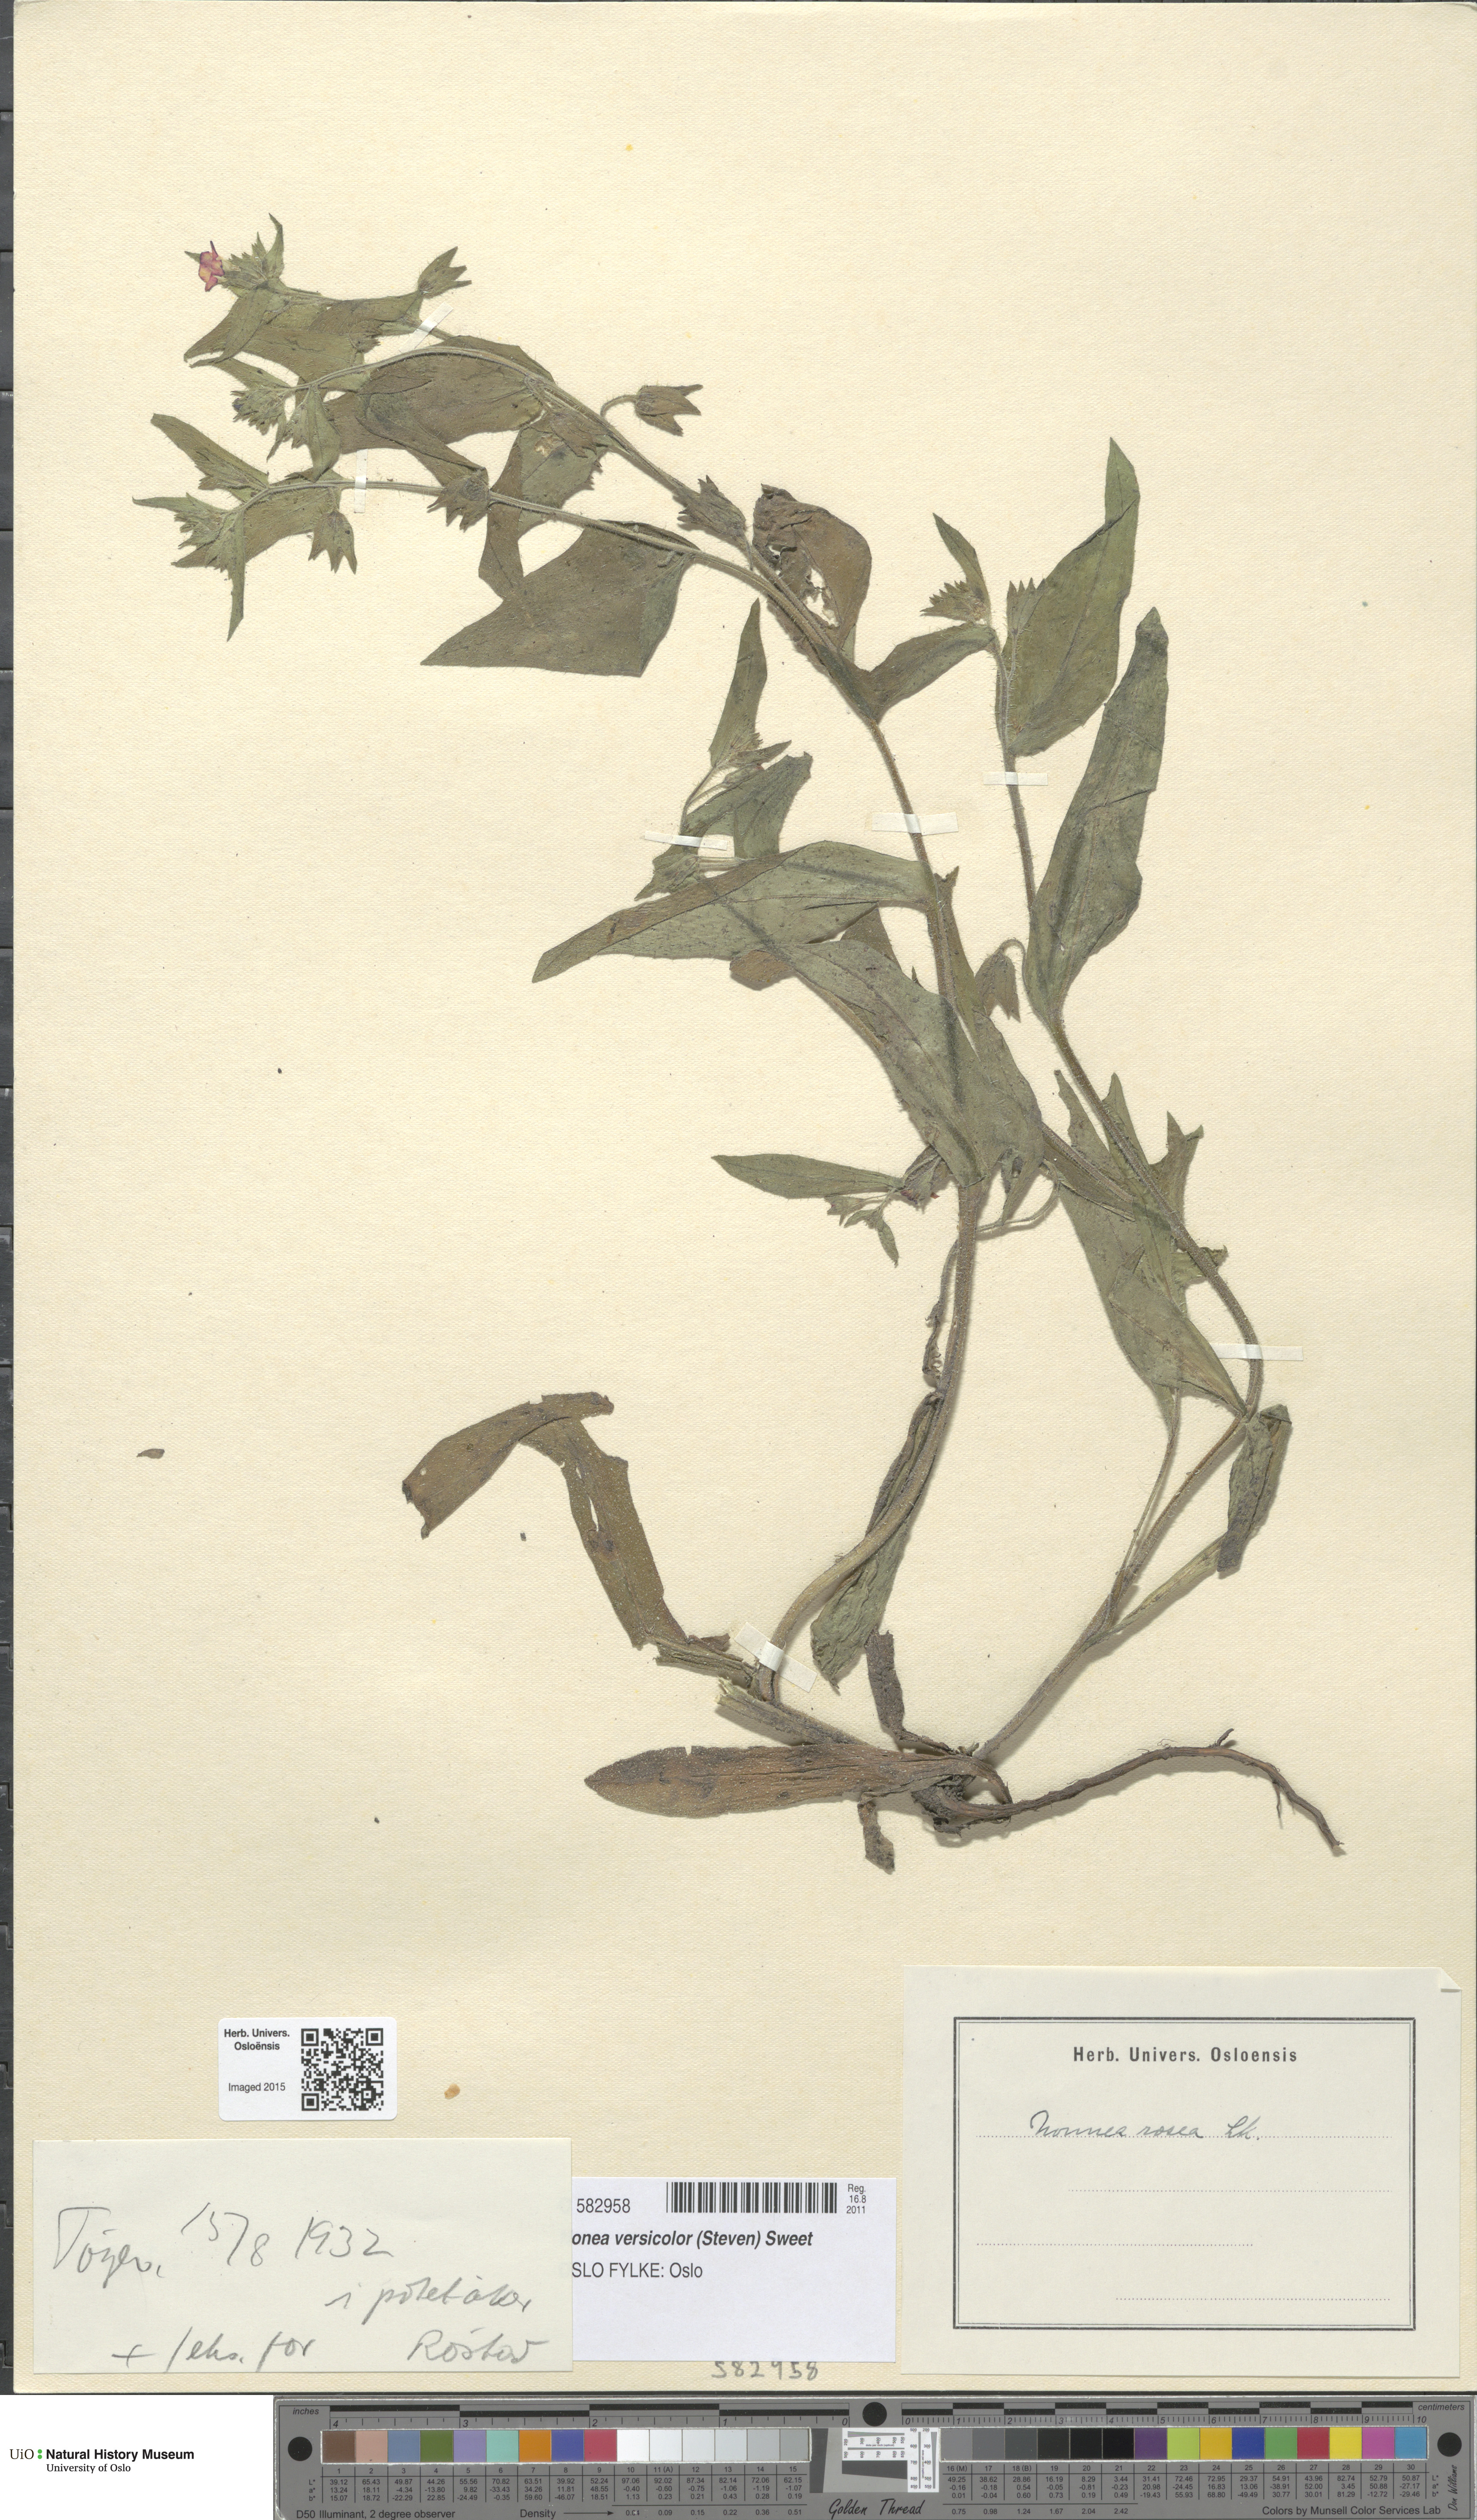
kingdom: Plantae
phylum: Tracheophyta
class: Magnoliopsida
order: Boraginales
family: Boraginaceae
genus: Nonea
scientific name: Nonea versicolor
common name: Varied monkswort
